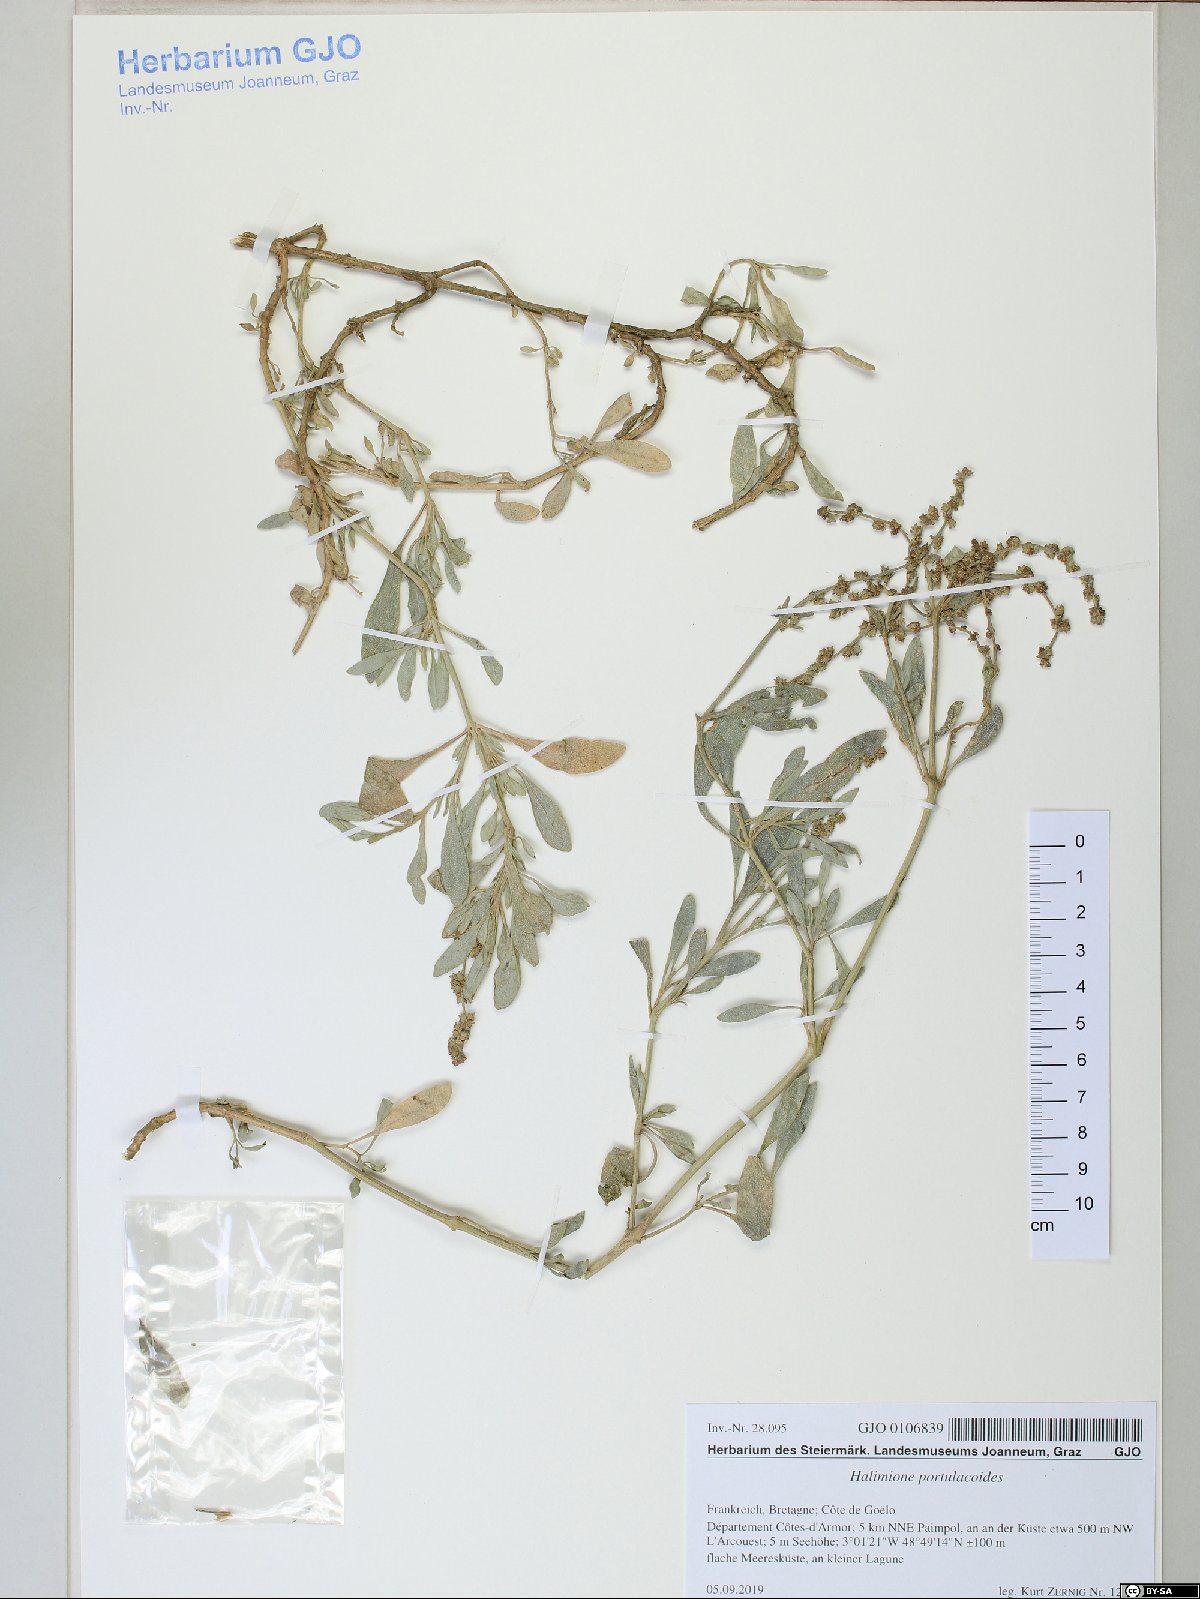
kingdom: Plantae
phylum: Tracheophyta
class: Magnoliopsida
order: Caryophyllales
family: Amaranthaceae
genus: Halimione
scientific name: Halimione portulacoides
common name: Sea-purslane
